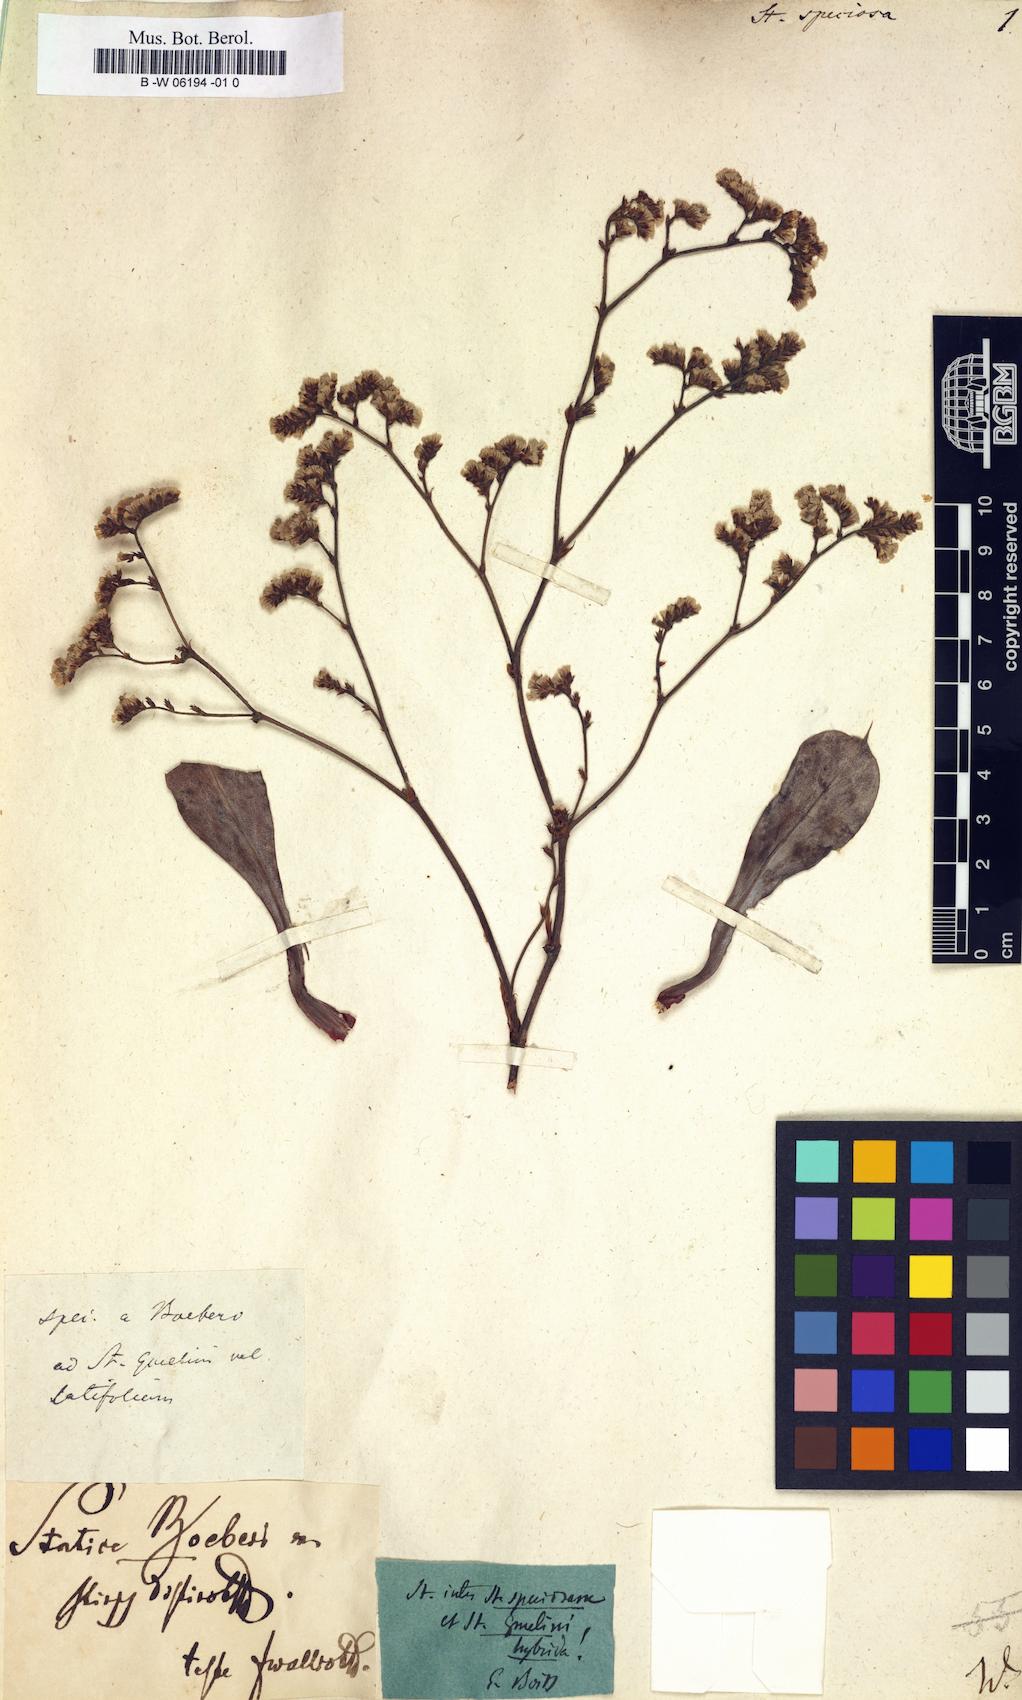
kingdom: Plantae
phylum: Tracheophyta
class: Magnoliopsida
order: Caryophyllales
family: Plumbaginaceae
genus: Goniolimon
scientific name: Goniolimon
